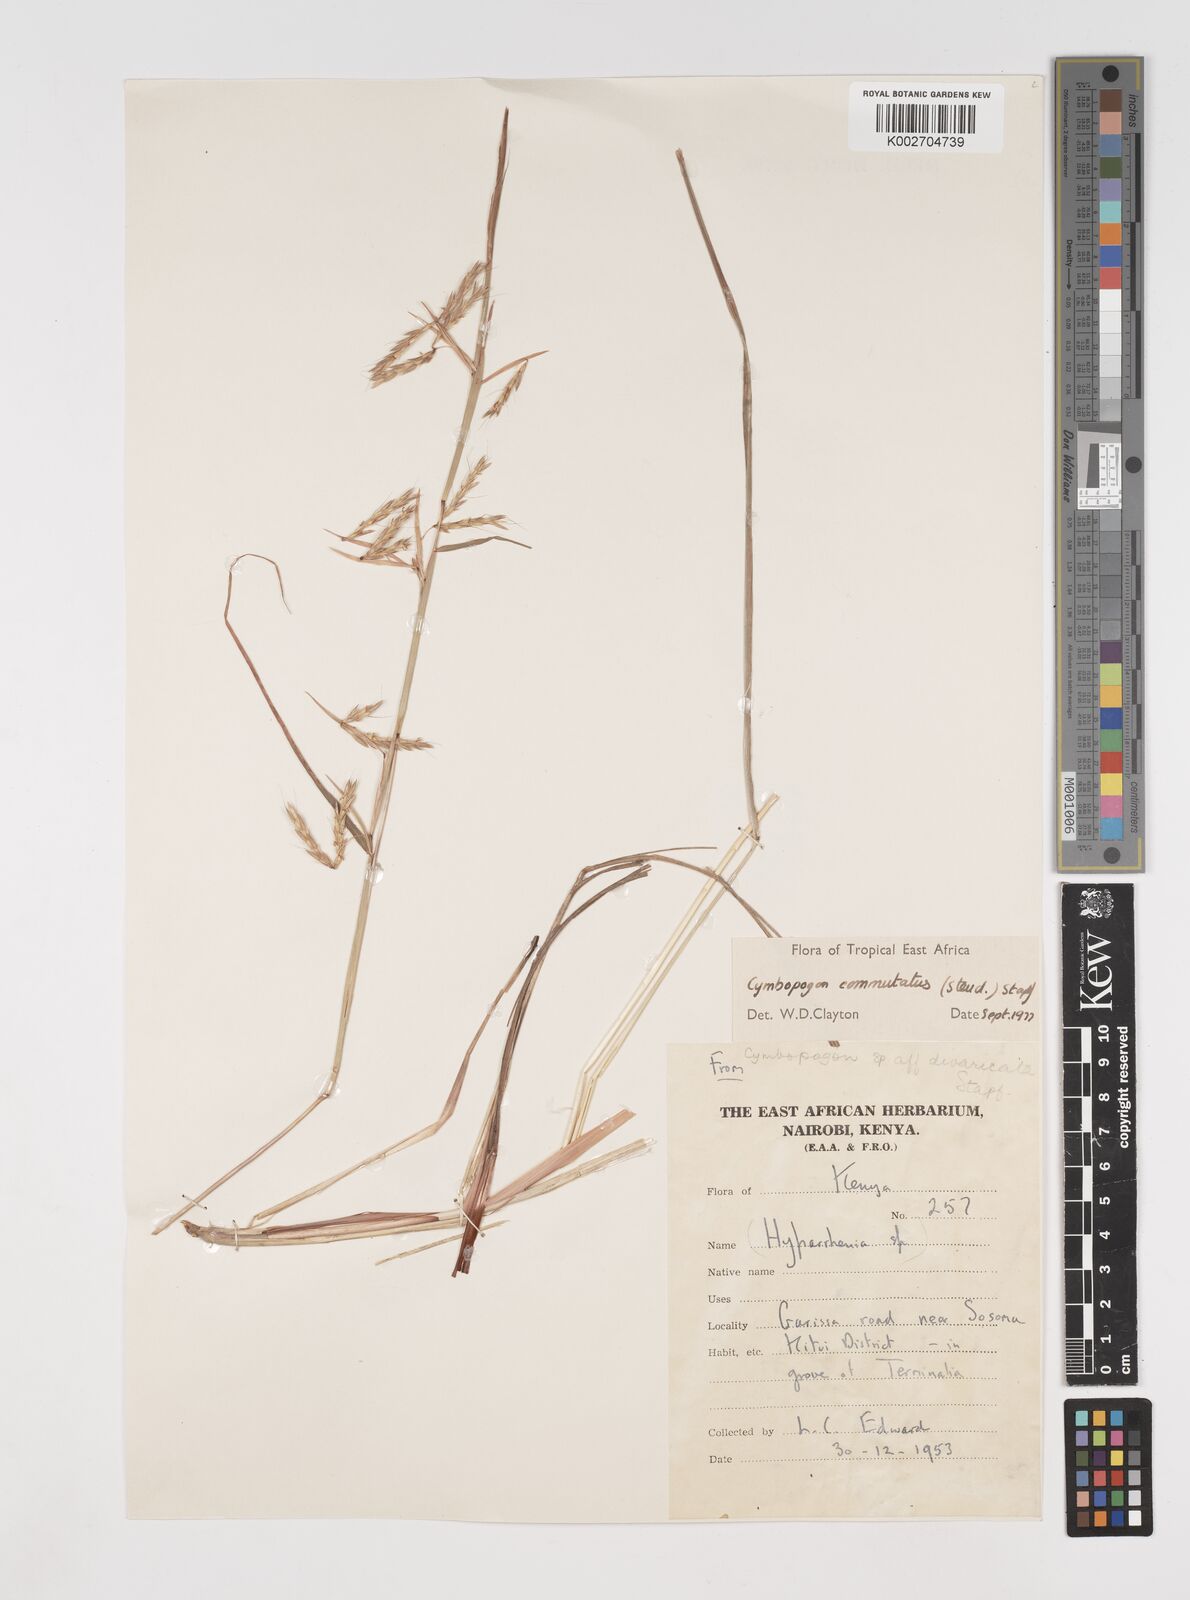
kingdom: Plantae
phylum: Tracheophyta
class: Liliopsida
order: Poales
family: Poaceae
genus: Cymbopogon
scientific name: Cymbopogon commutatus
